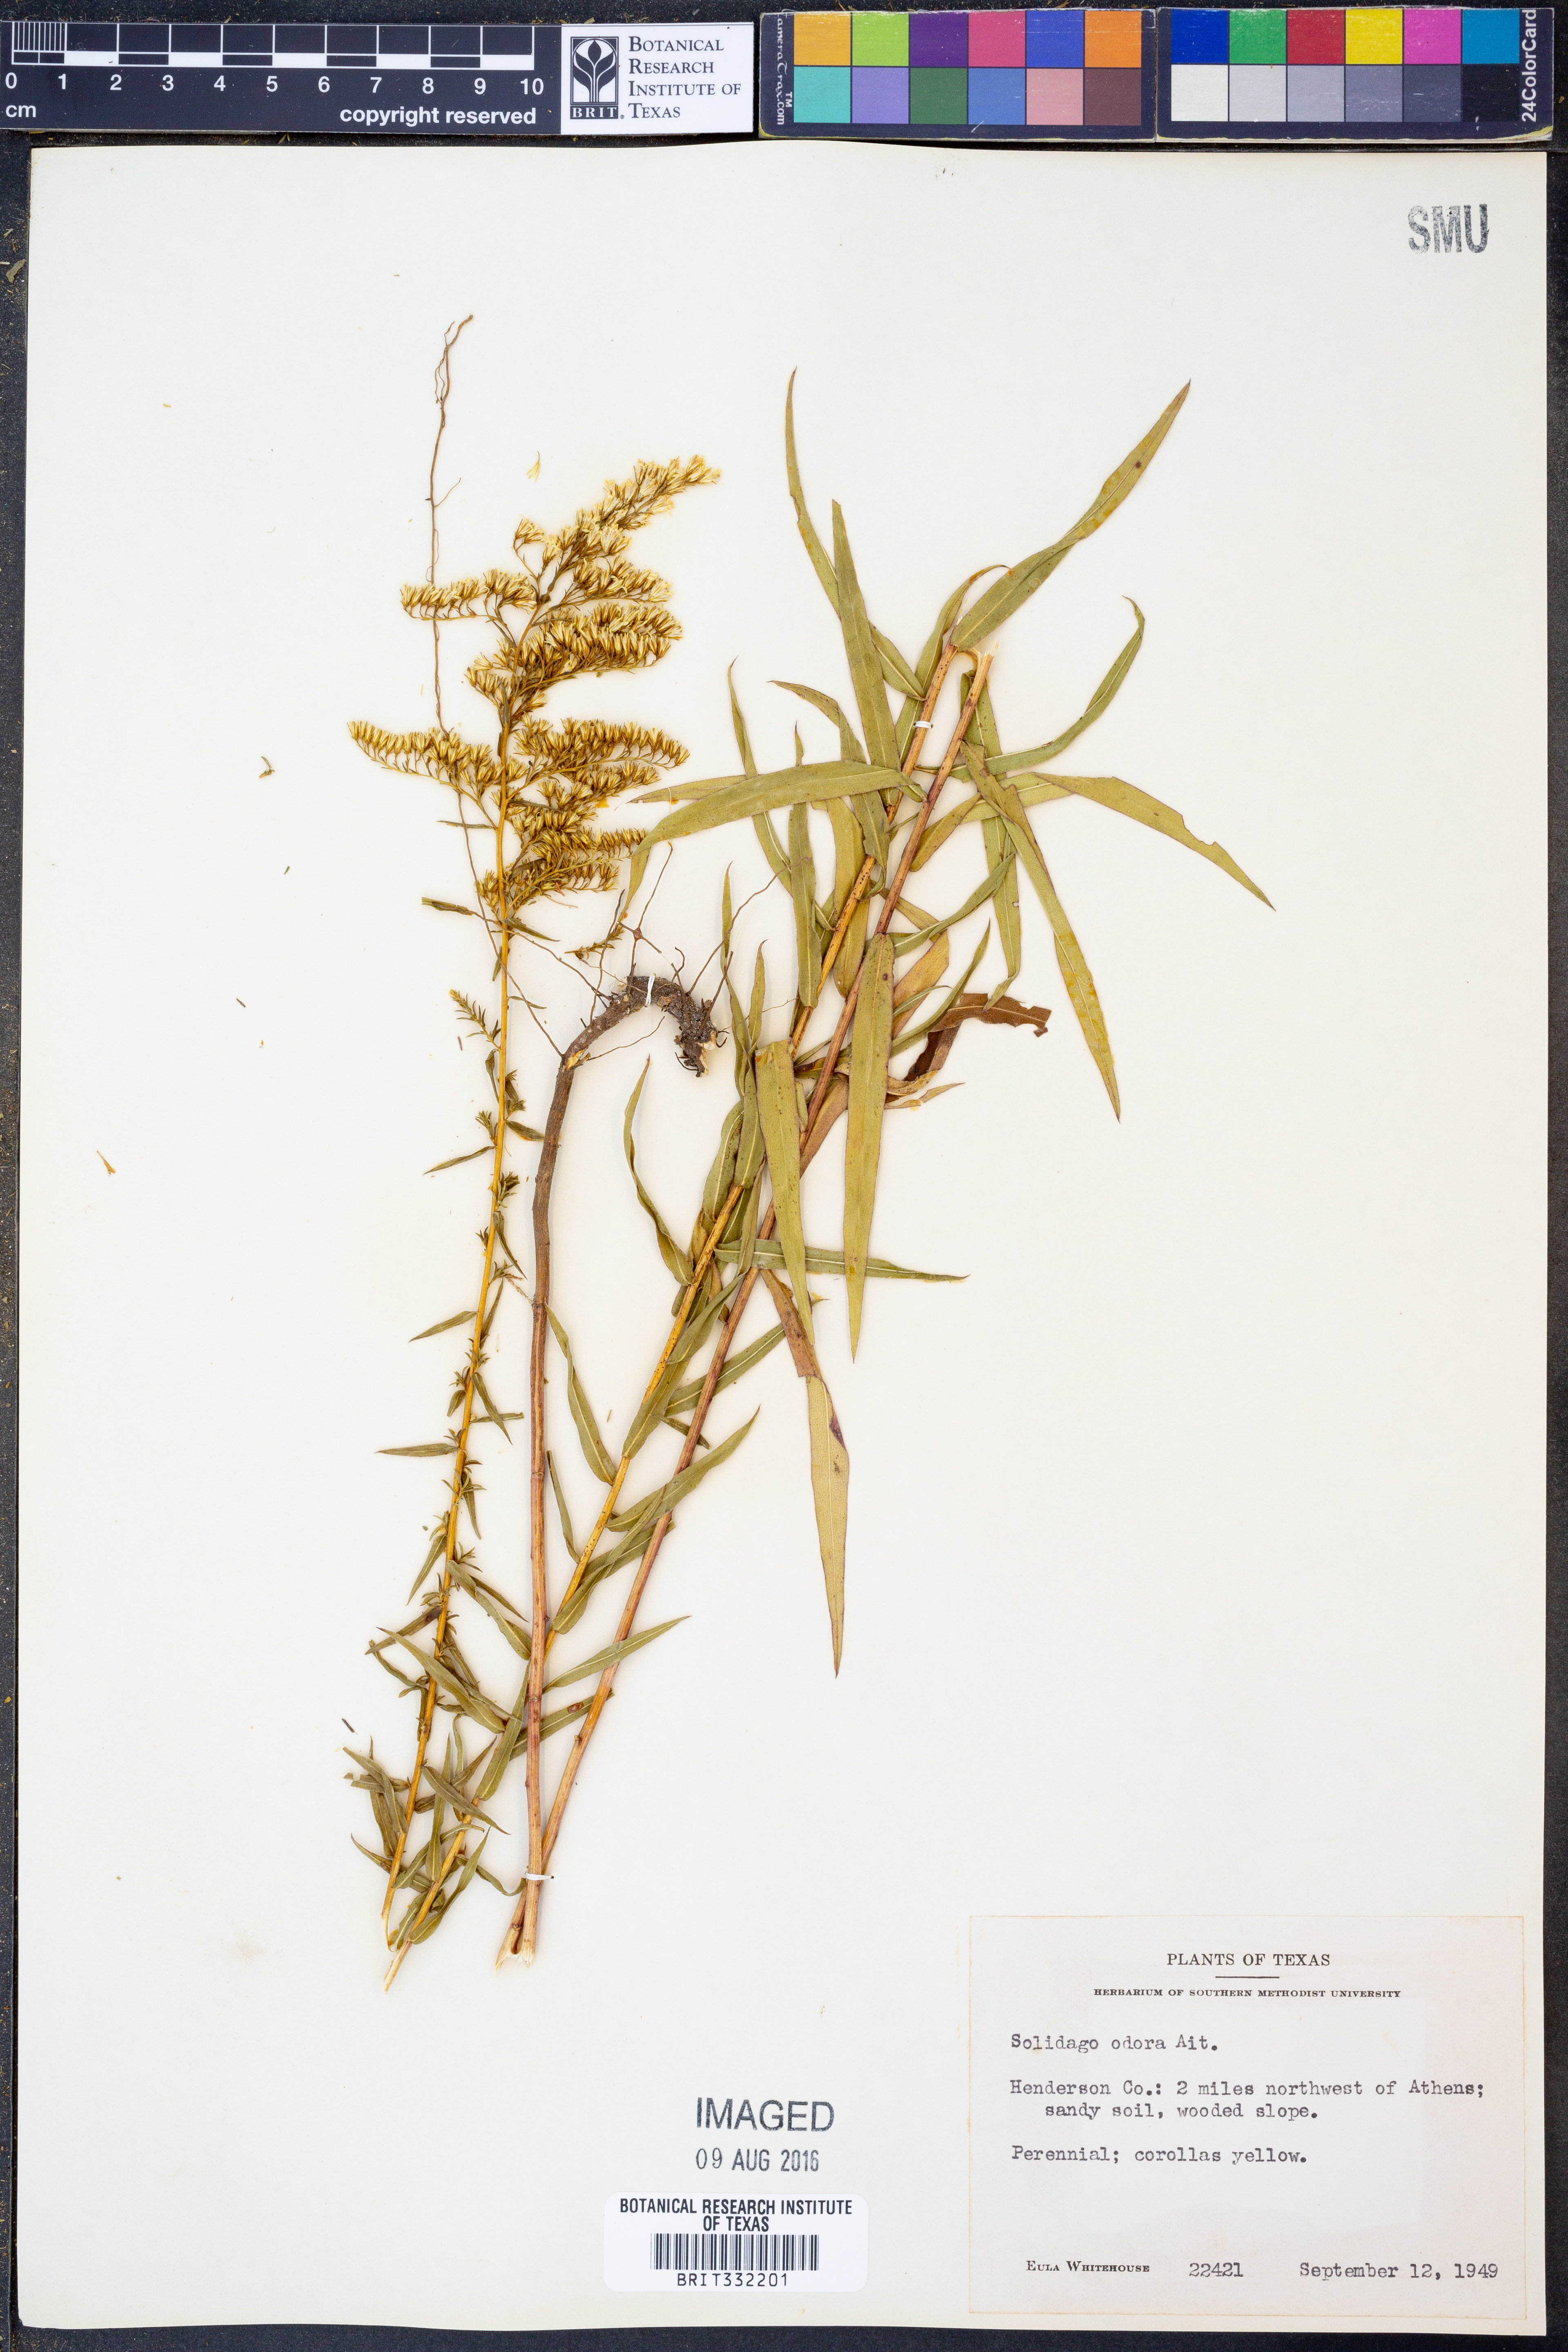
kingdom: Plantae
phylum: Tracheophyta
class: Magnoliopsida
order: Asterales
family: Asteraceae
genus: Solidago
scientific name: Solidago odora
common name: Anise-scented goldenrod
